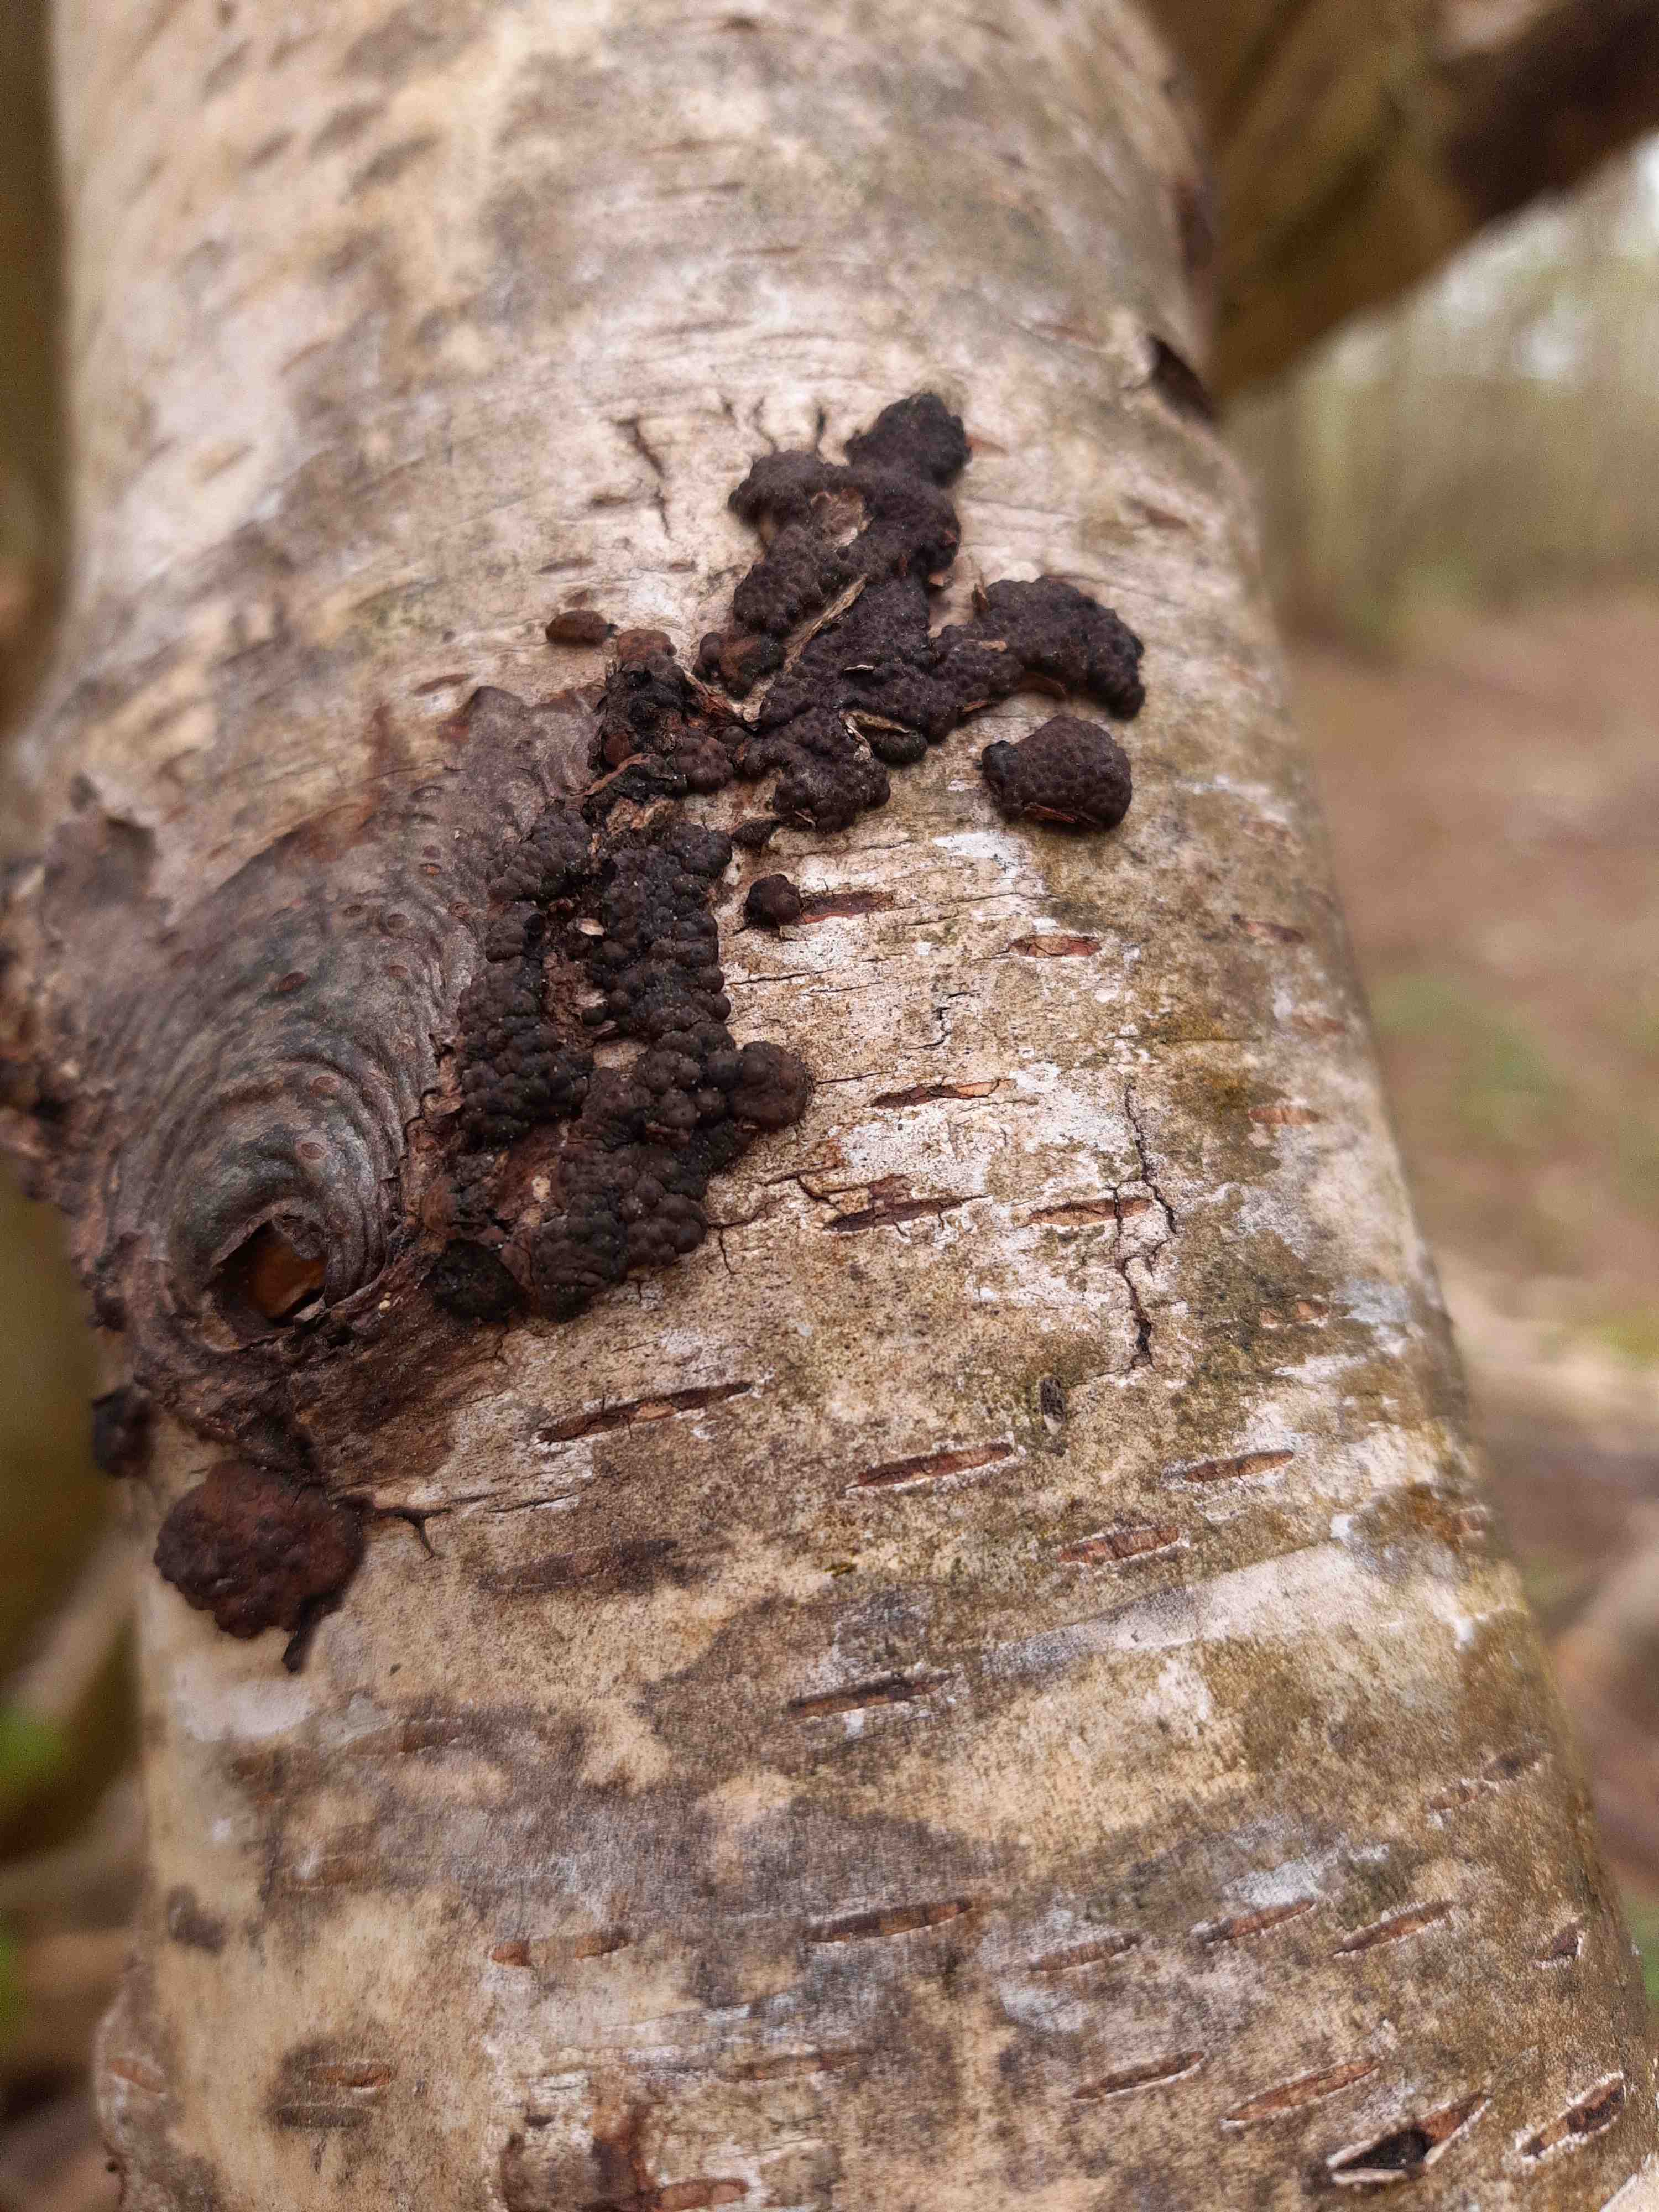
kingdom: Fungi
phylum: Ascomycota
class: Sordariomycetes
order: Xylariales
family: Hypoxylaceae
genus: Jackrogersella
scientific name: Jackrogersella multiformis
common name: foranderlig kulbær
